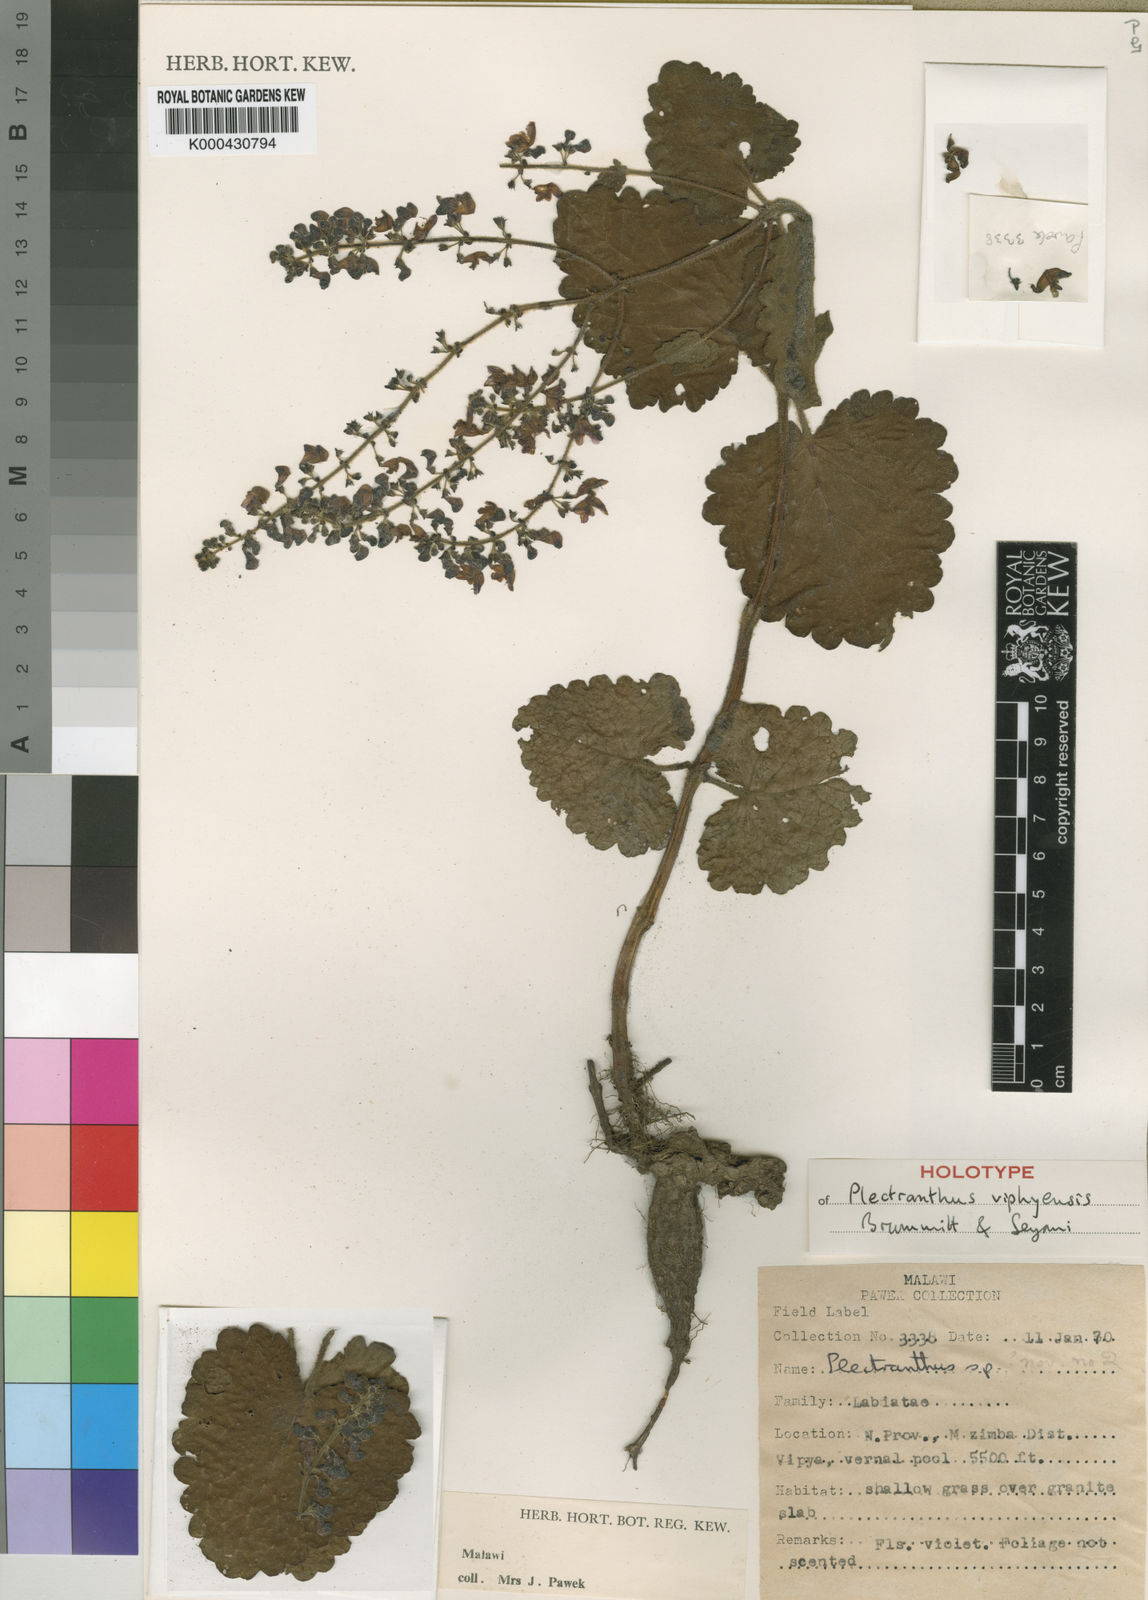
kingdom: Plantae
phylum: Tracheophyta
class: Magnoliopsida
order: Lamiales
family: Lamiaceae
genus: Equilabium
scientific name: Equilabium viphyense
